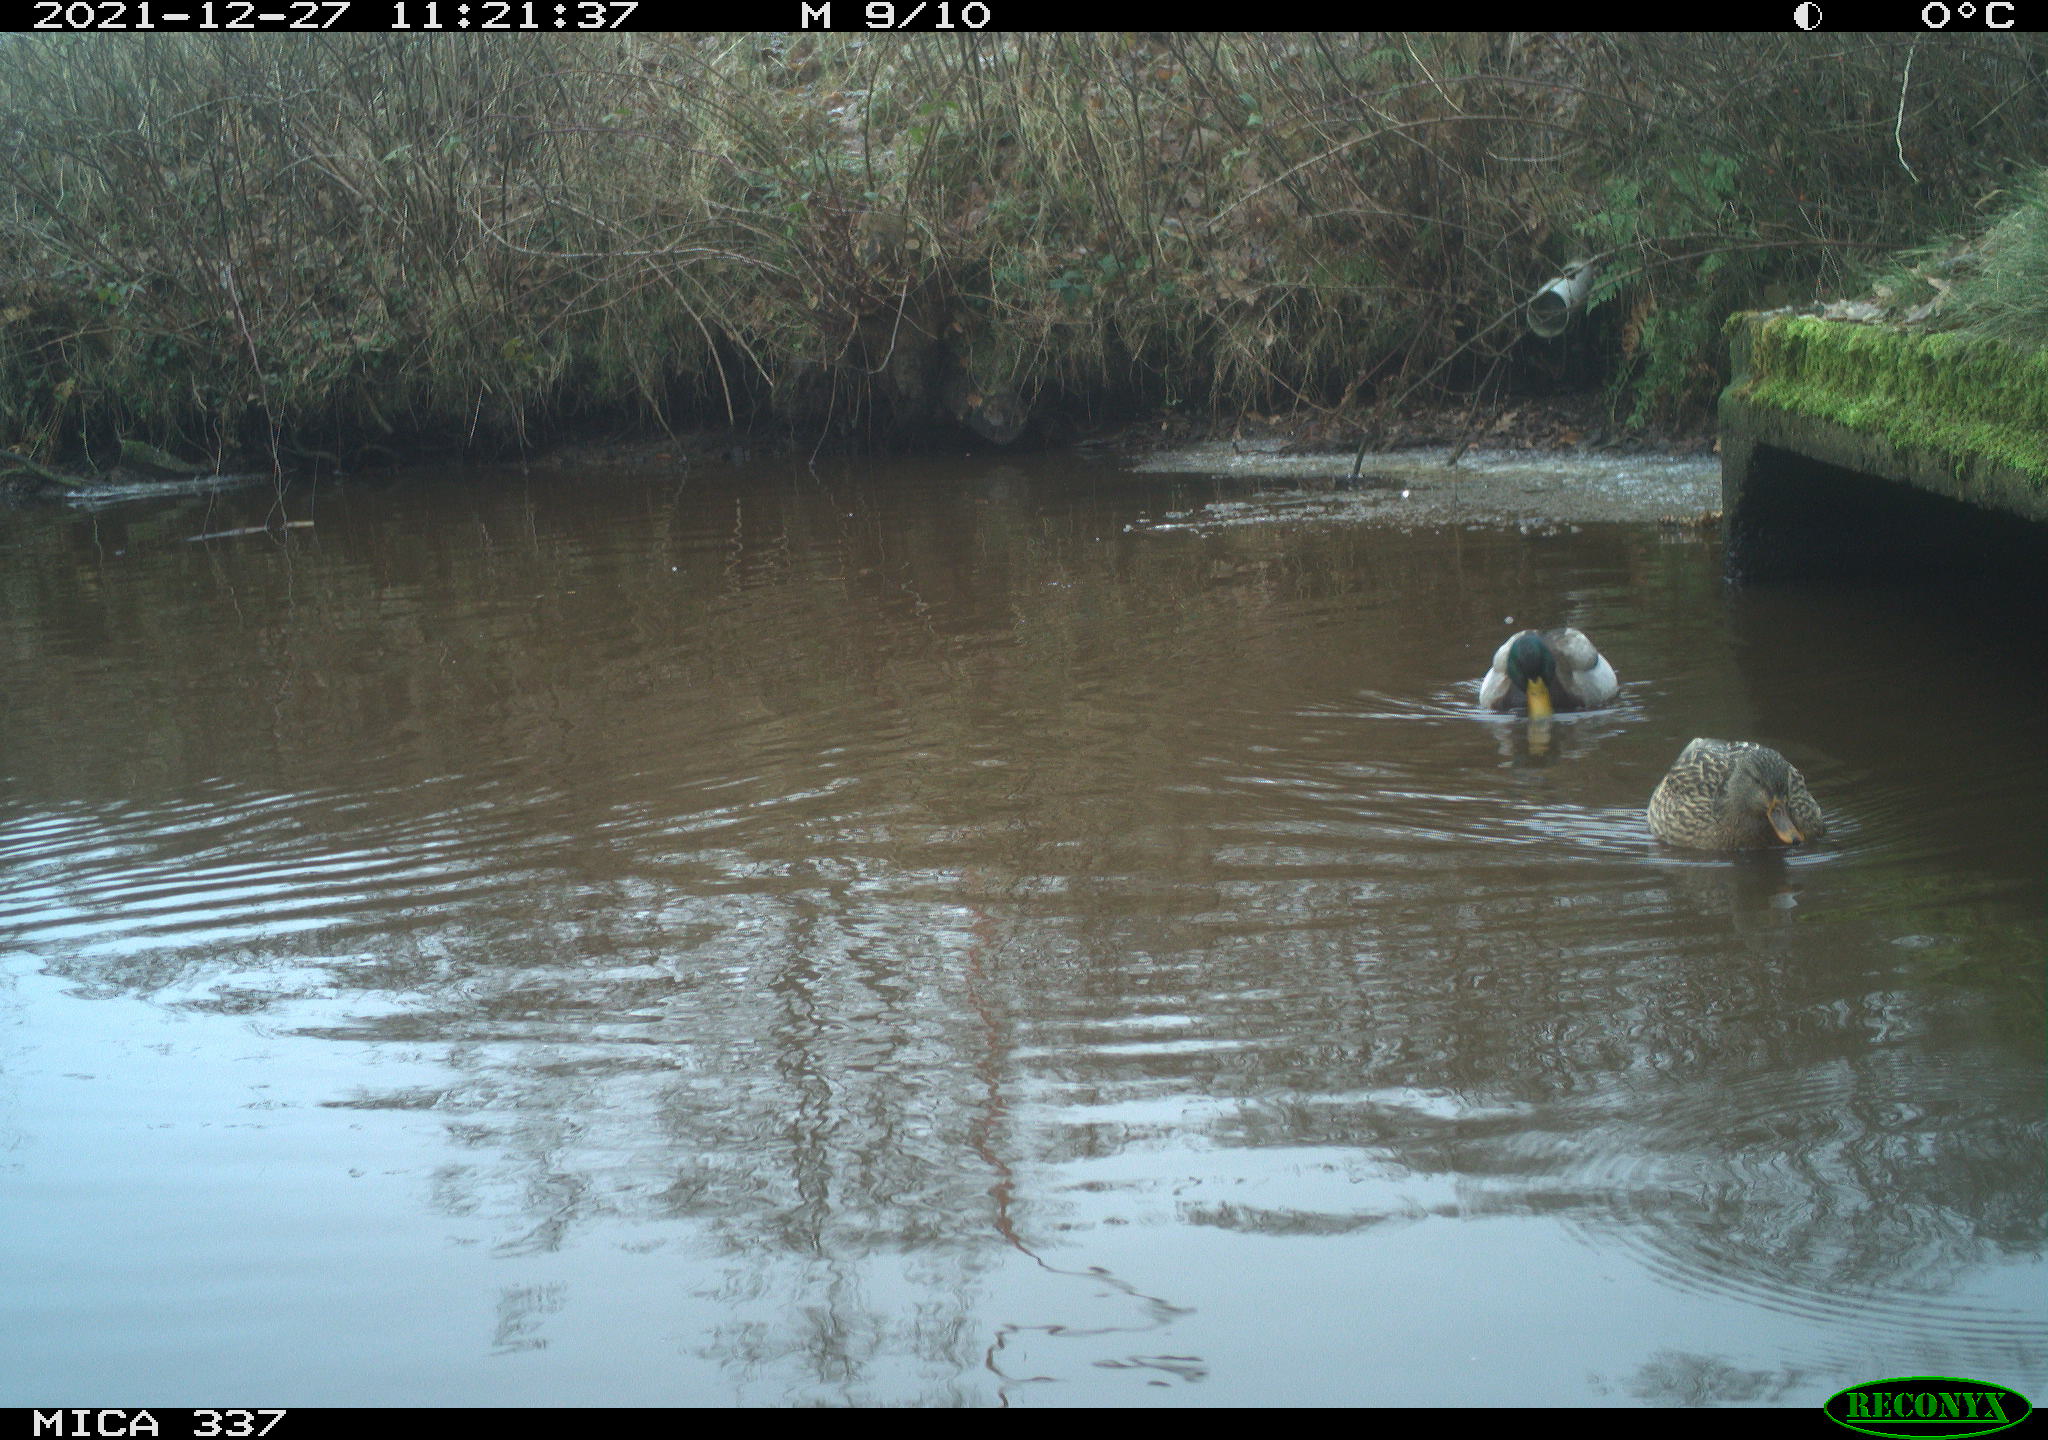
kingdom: Animalia
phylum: Chordata
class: Aves
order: Anseriformes
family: Anatidae
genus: Anas
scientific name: Anas platyrhynchos
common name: Mallard
